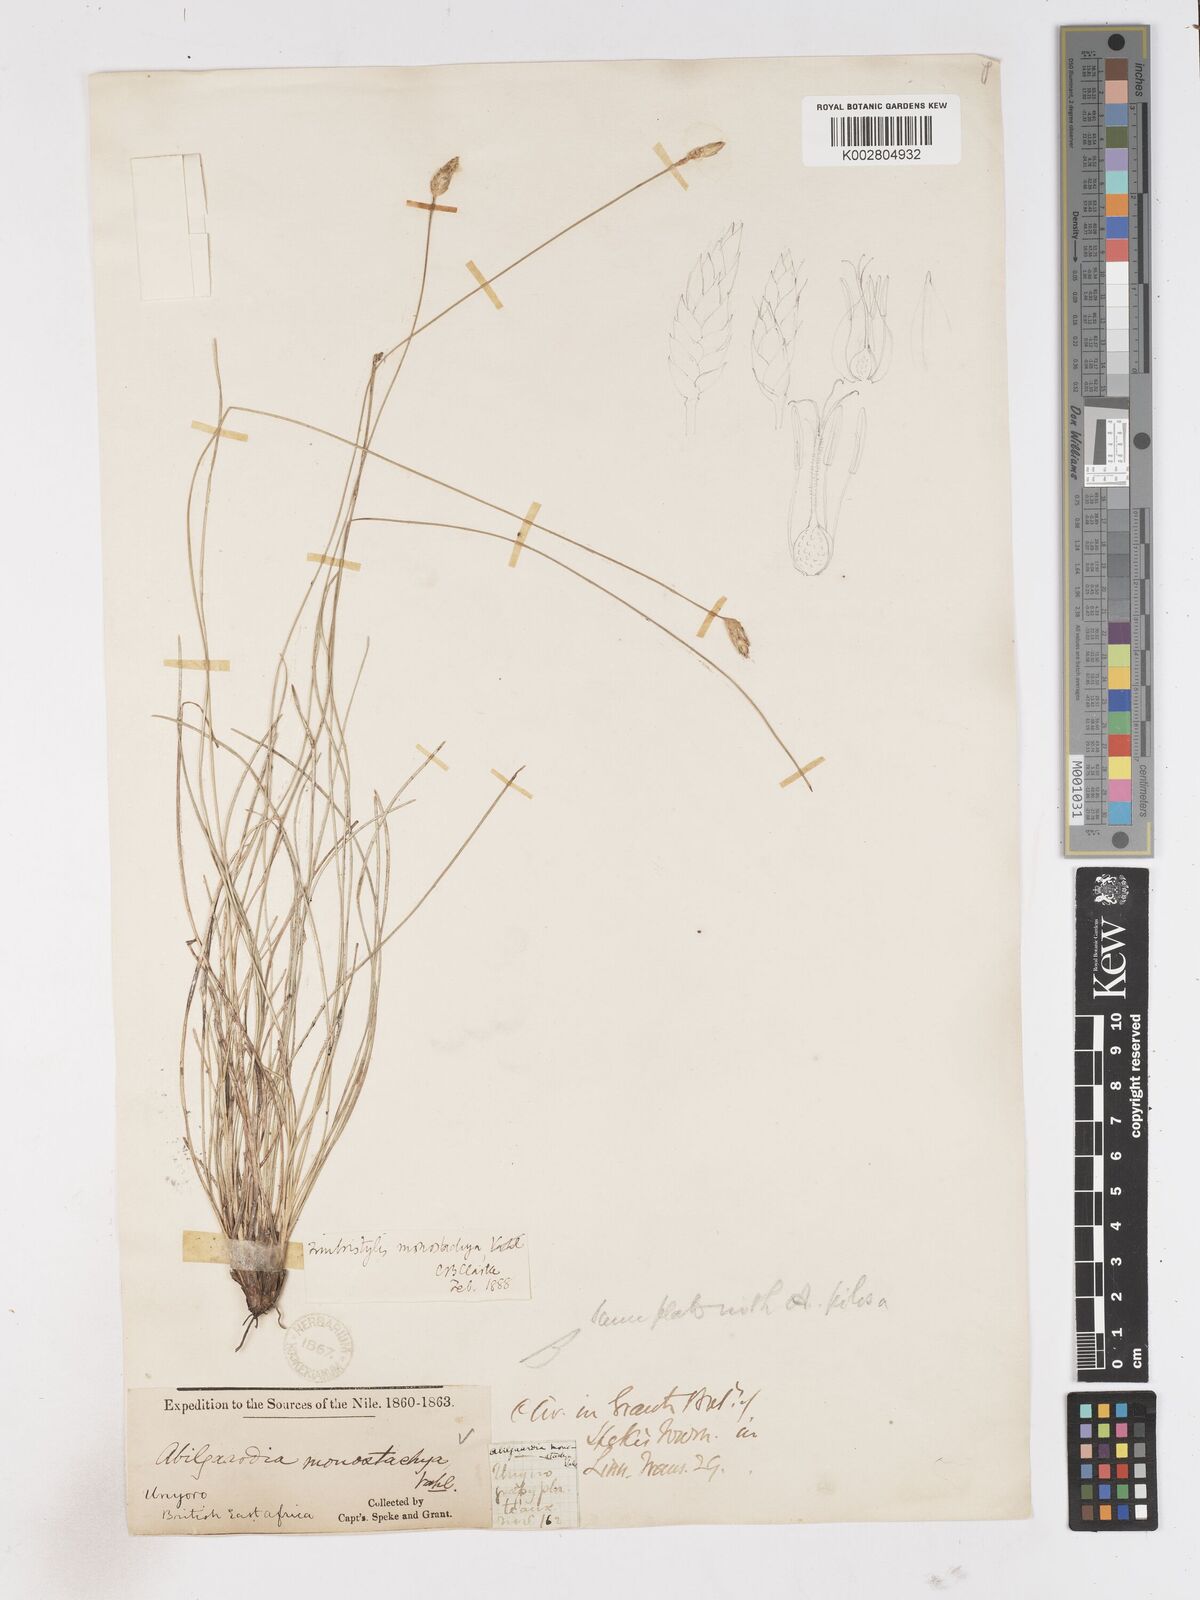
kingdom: Plantae
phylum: Tracheophyta
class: Liliopsida
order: Poales
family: Cyperaceae
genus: Abildgaardia
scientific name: Abildgaardia ovata
